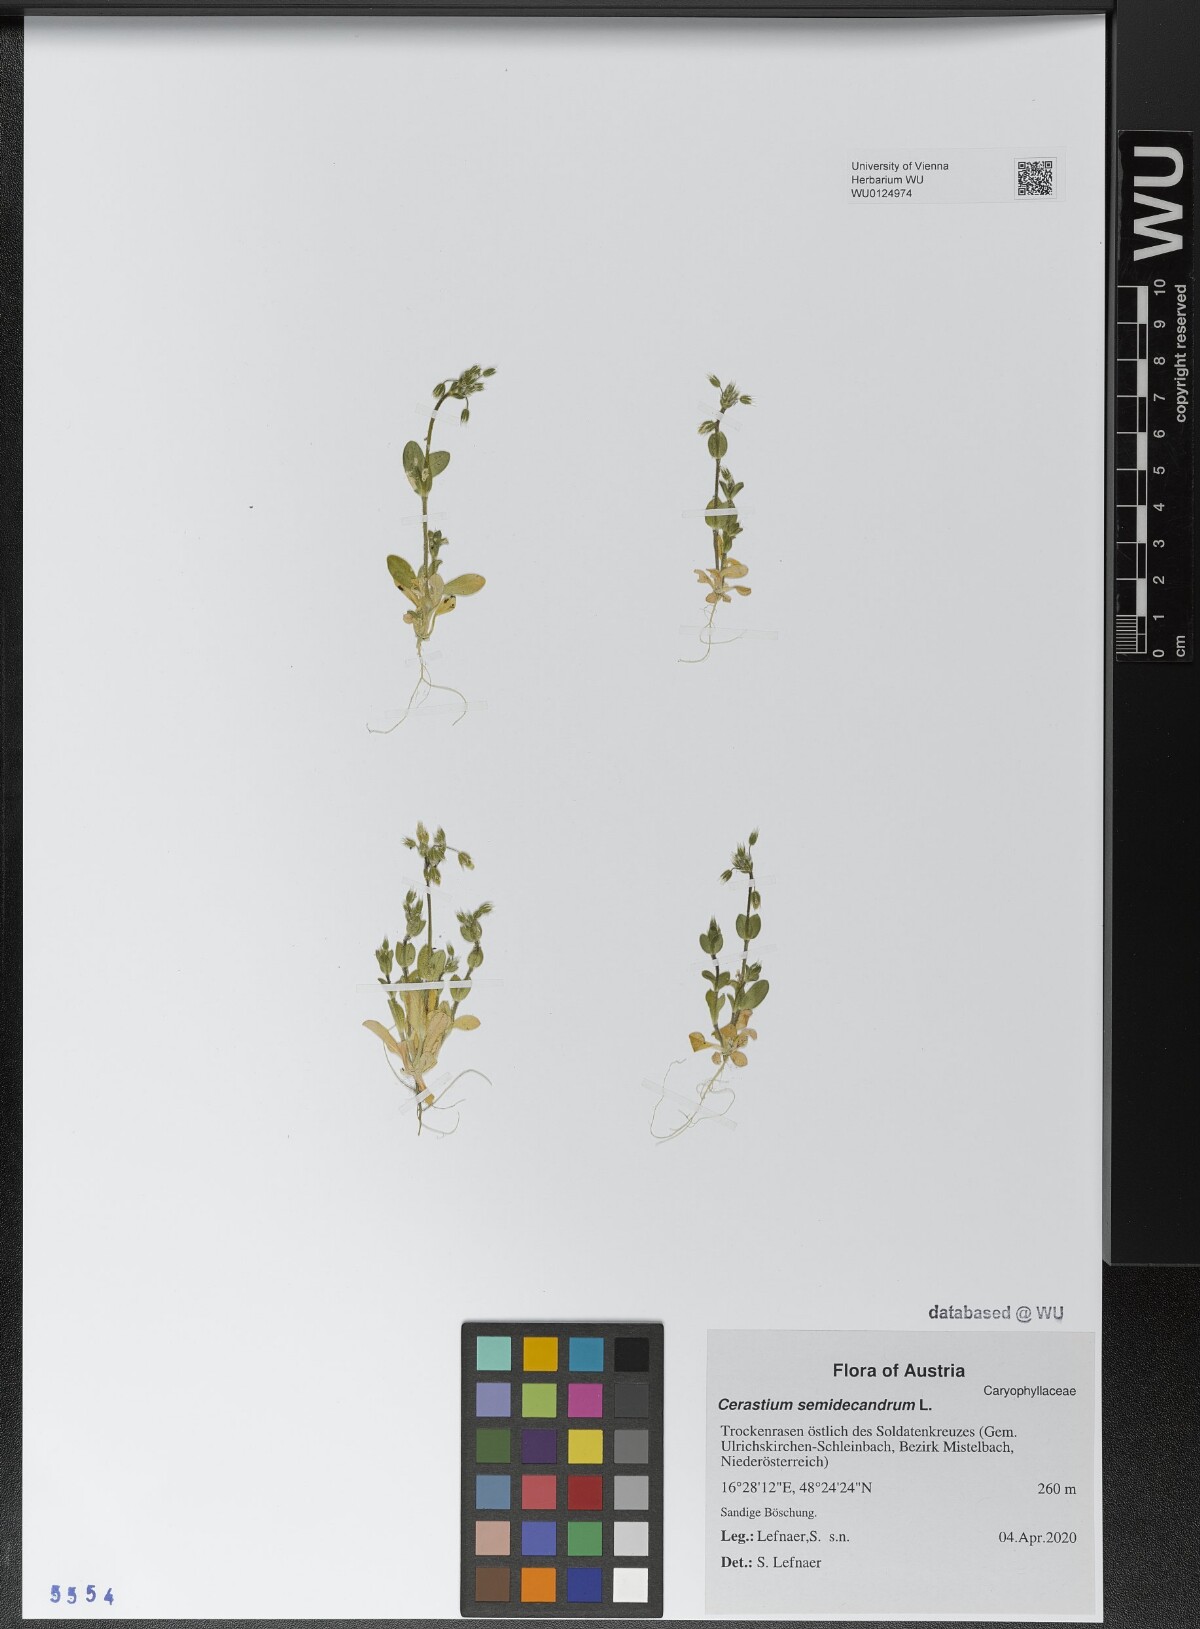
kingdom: Plantae
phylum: Tracheophyta
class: Magnoliopsida
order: Caryophyllales
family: Caryophyllaceae
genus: Cerastium
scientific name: Cerastium semidecandrum
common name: Little mouse-ear
